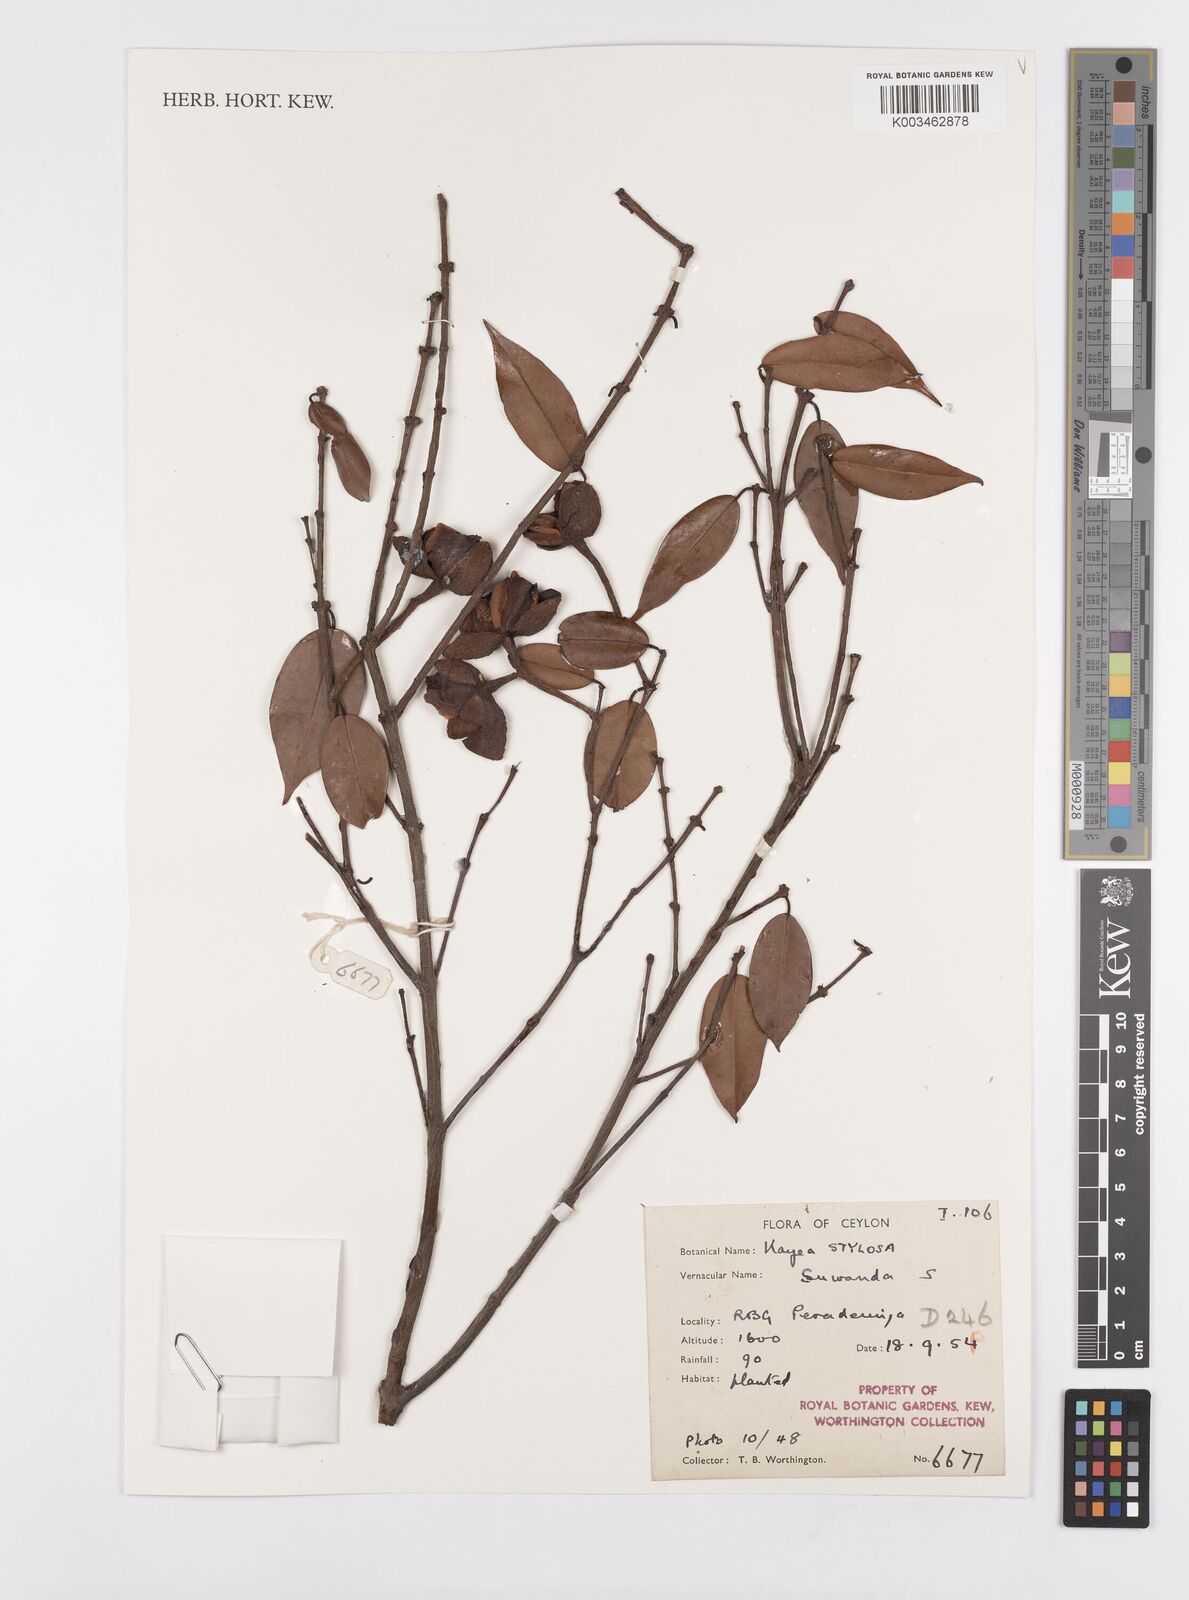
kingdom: Plantae
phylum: Tracheophyta
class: Magnoliopsida
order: Malpighiales
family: Calophyllaceae
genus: Kayea
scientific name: Kayea stylosa
